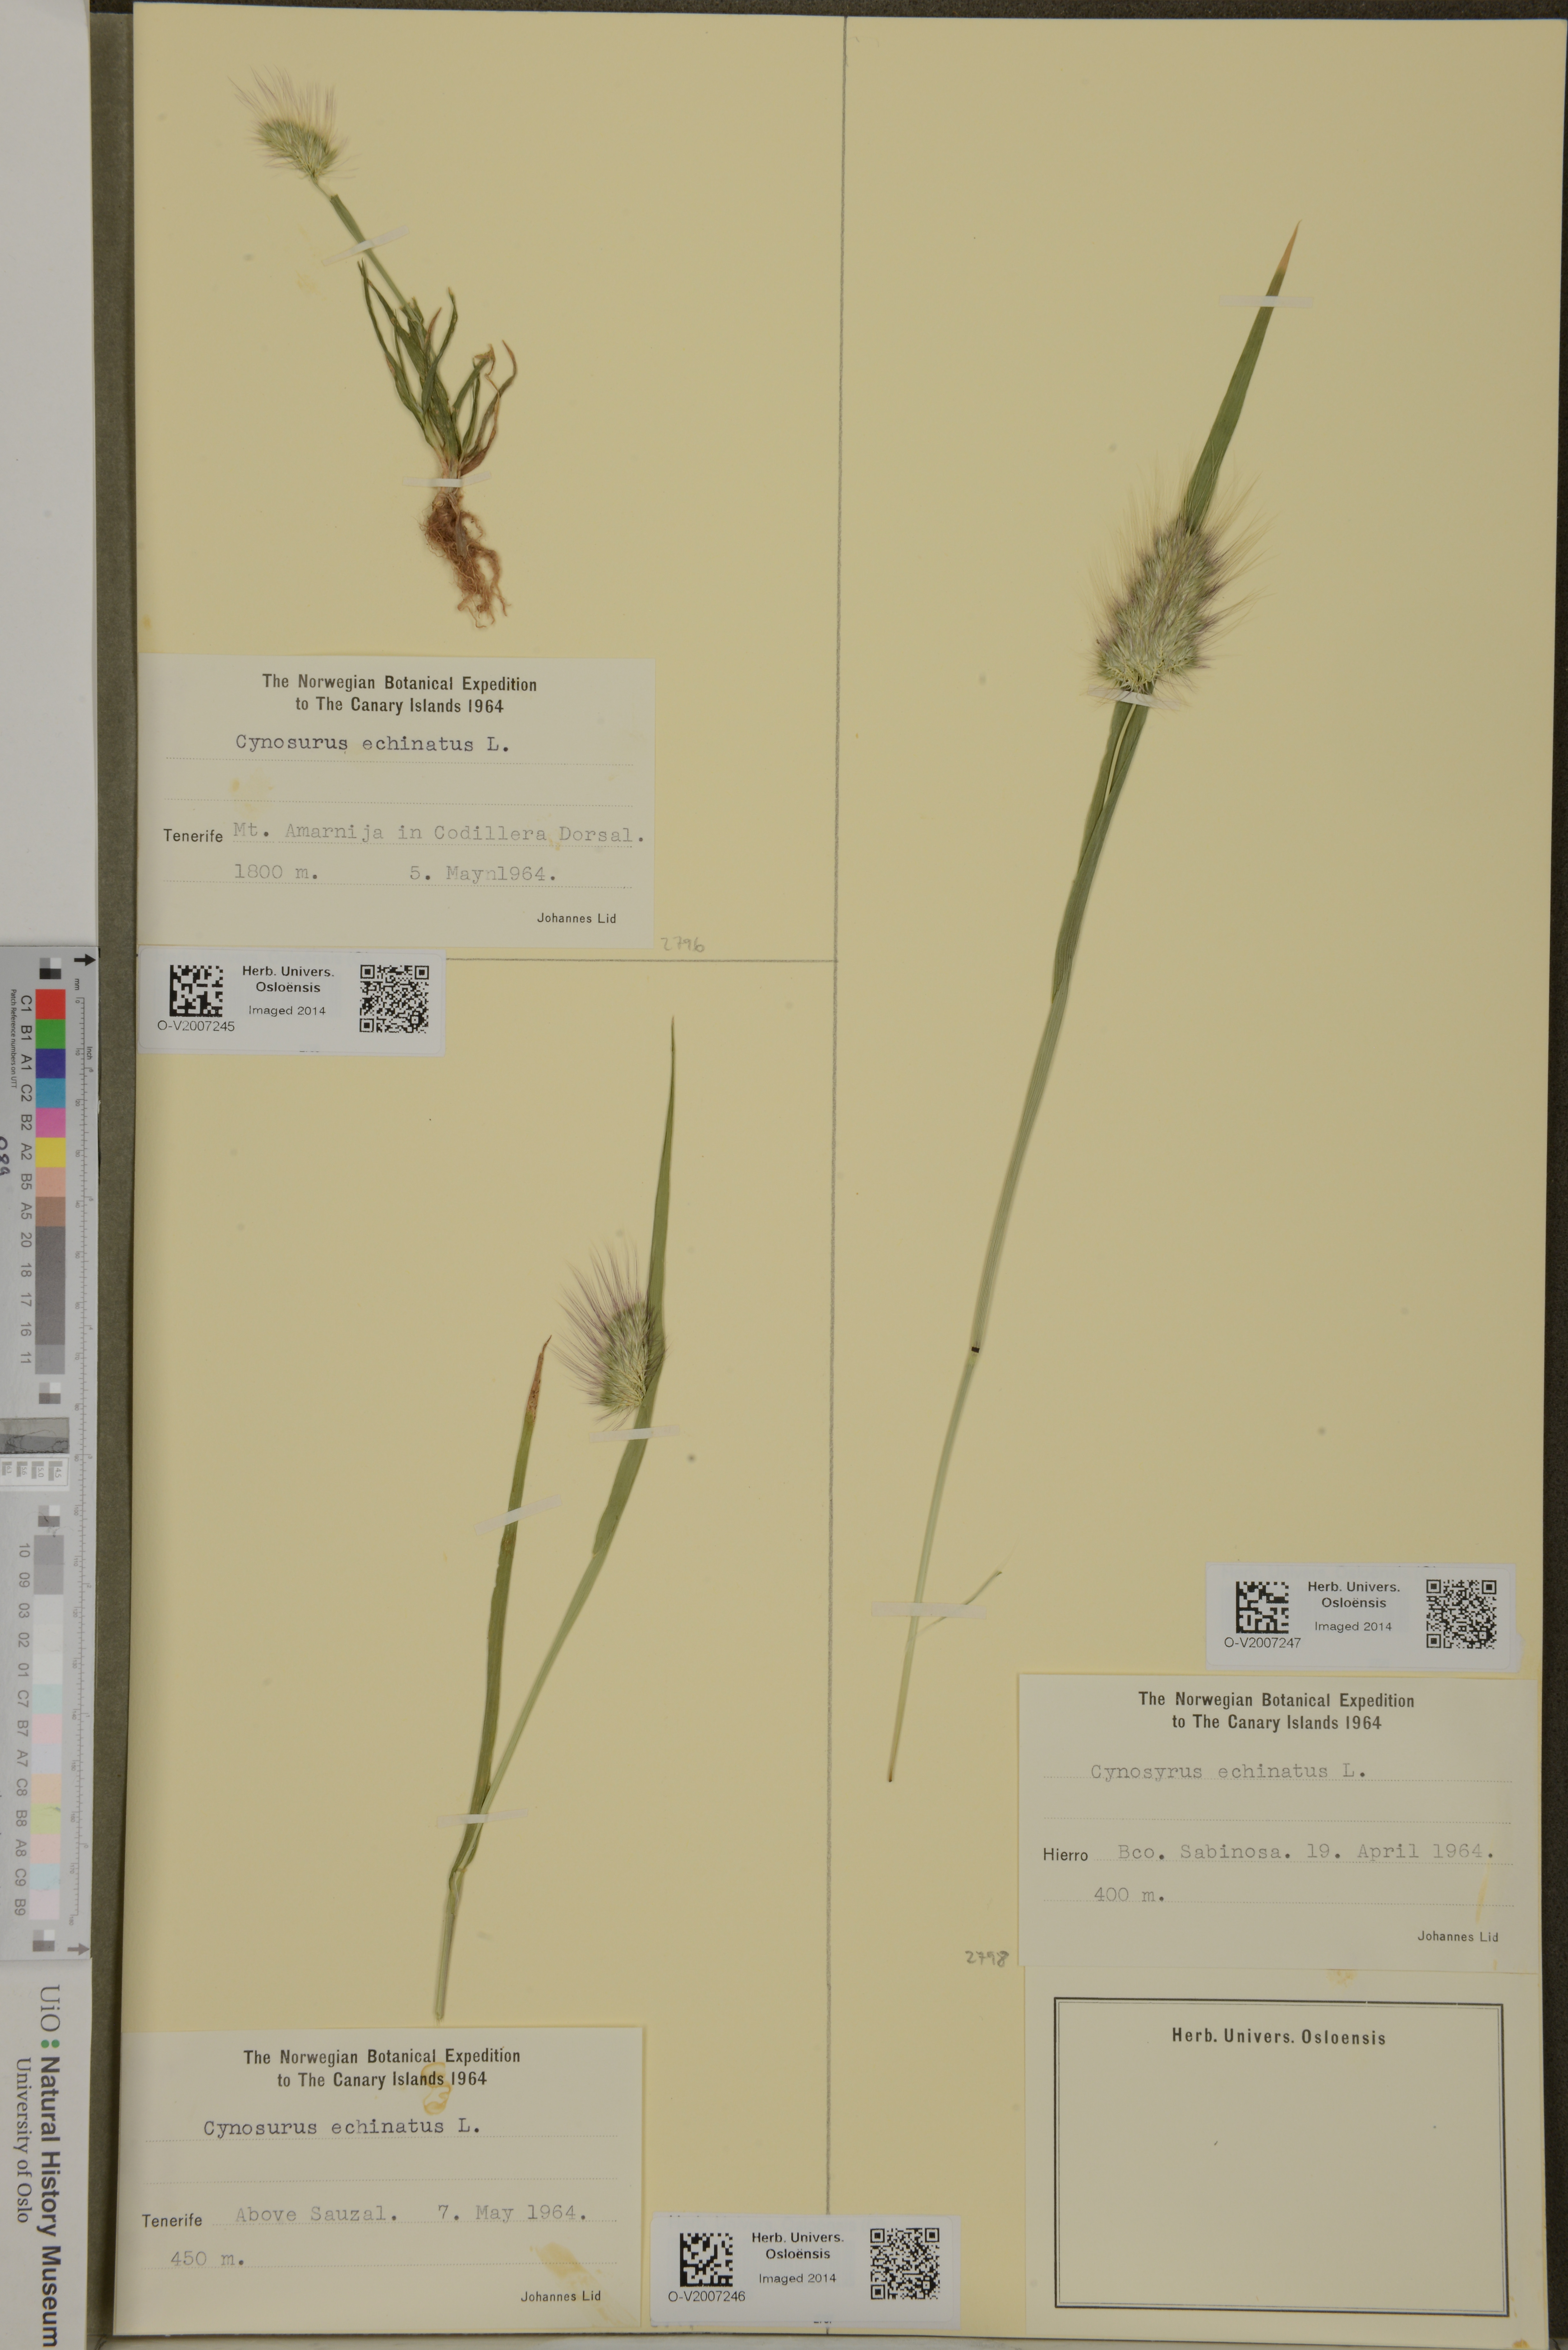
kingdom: Plantae
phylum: Tracheophyta
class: Liliopsida
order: Poales
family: Poaceae
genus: Cynosurus
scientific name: Cynosurus echinatus
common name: Rough dog's-tail
